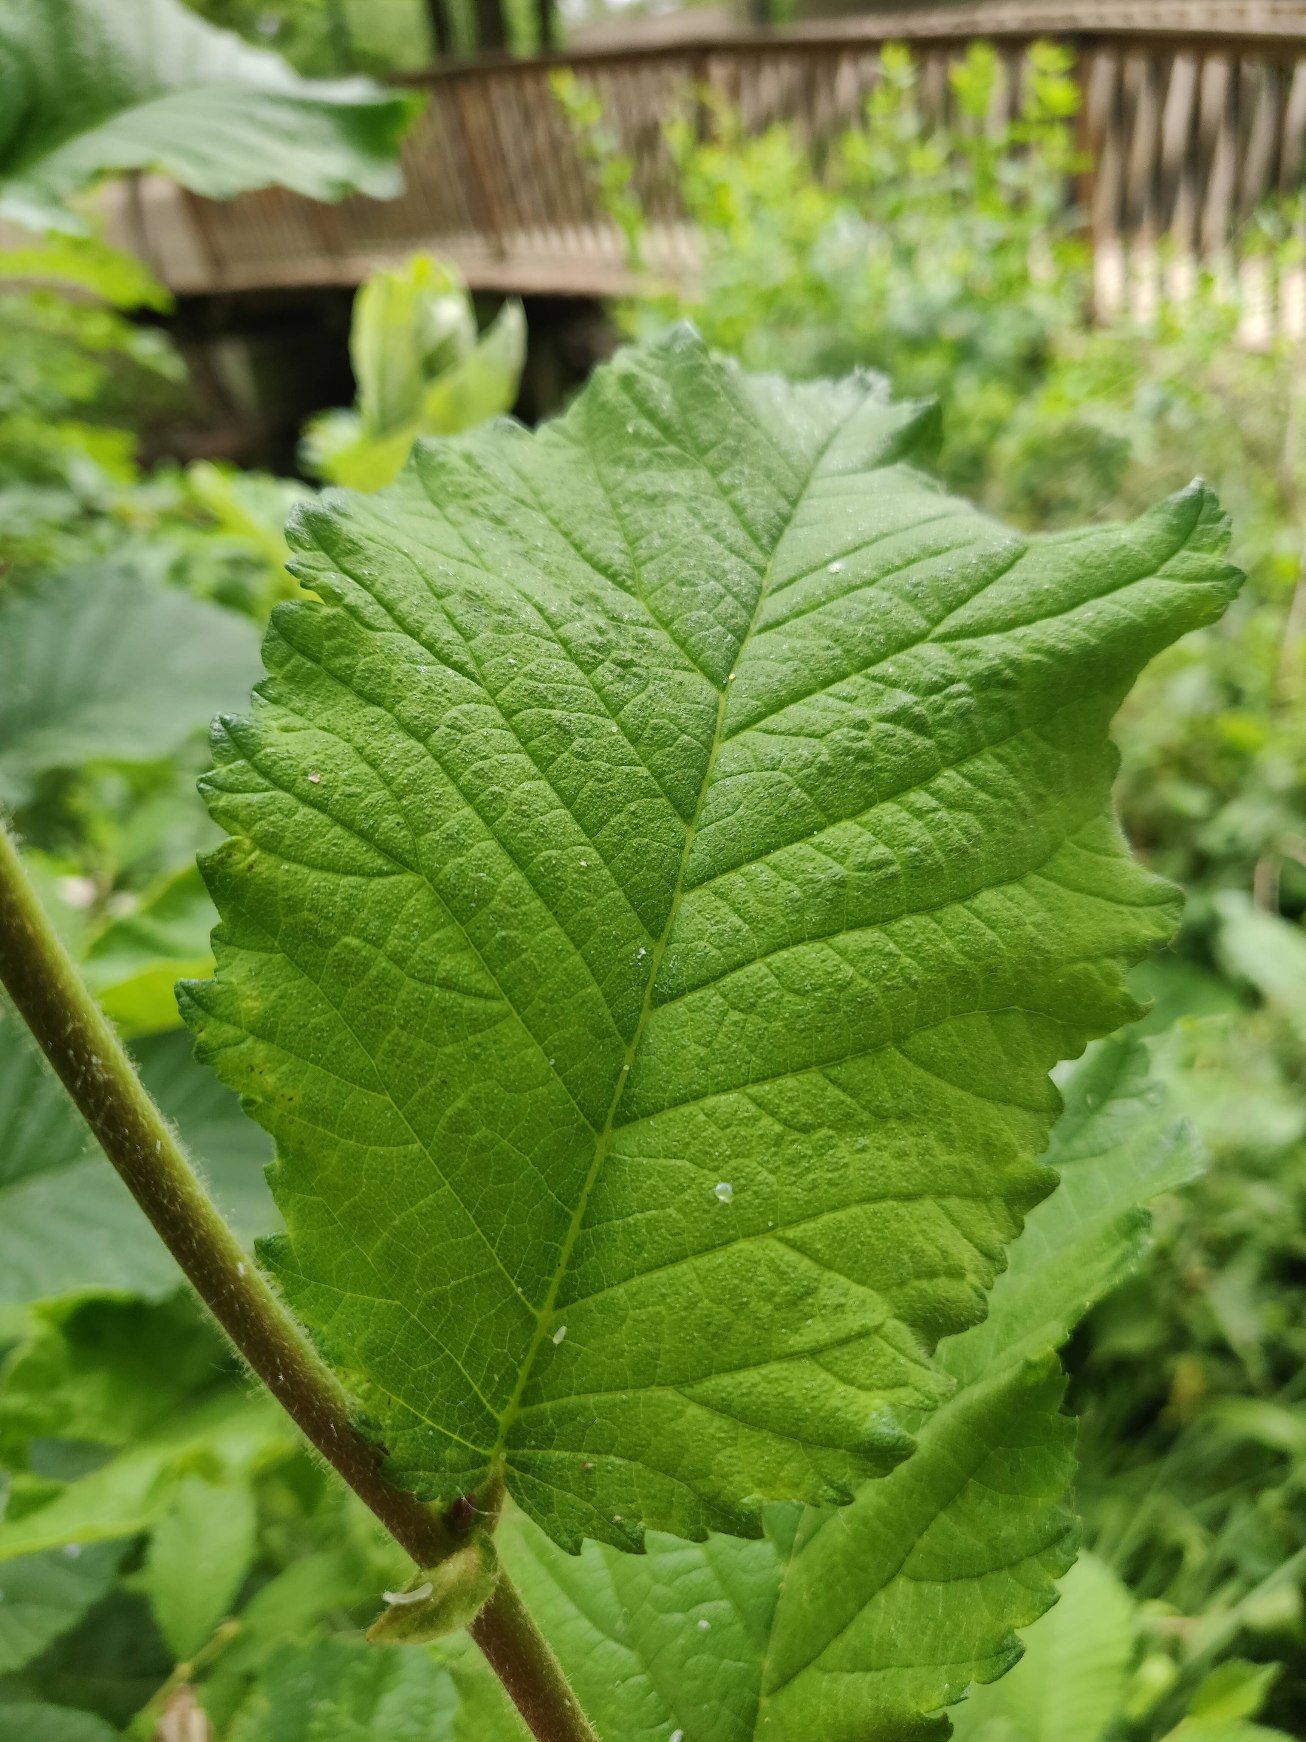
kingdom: Plantae
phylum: Tracheophyta
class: Magnoliopsida
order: Rosales
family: Ulmaceae
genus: Ulmus
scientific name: Ulmus glabra
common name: Skov-elm/storbladet elm
